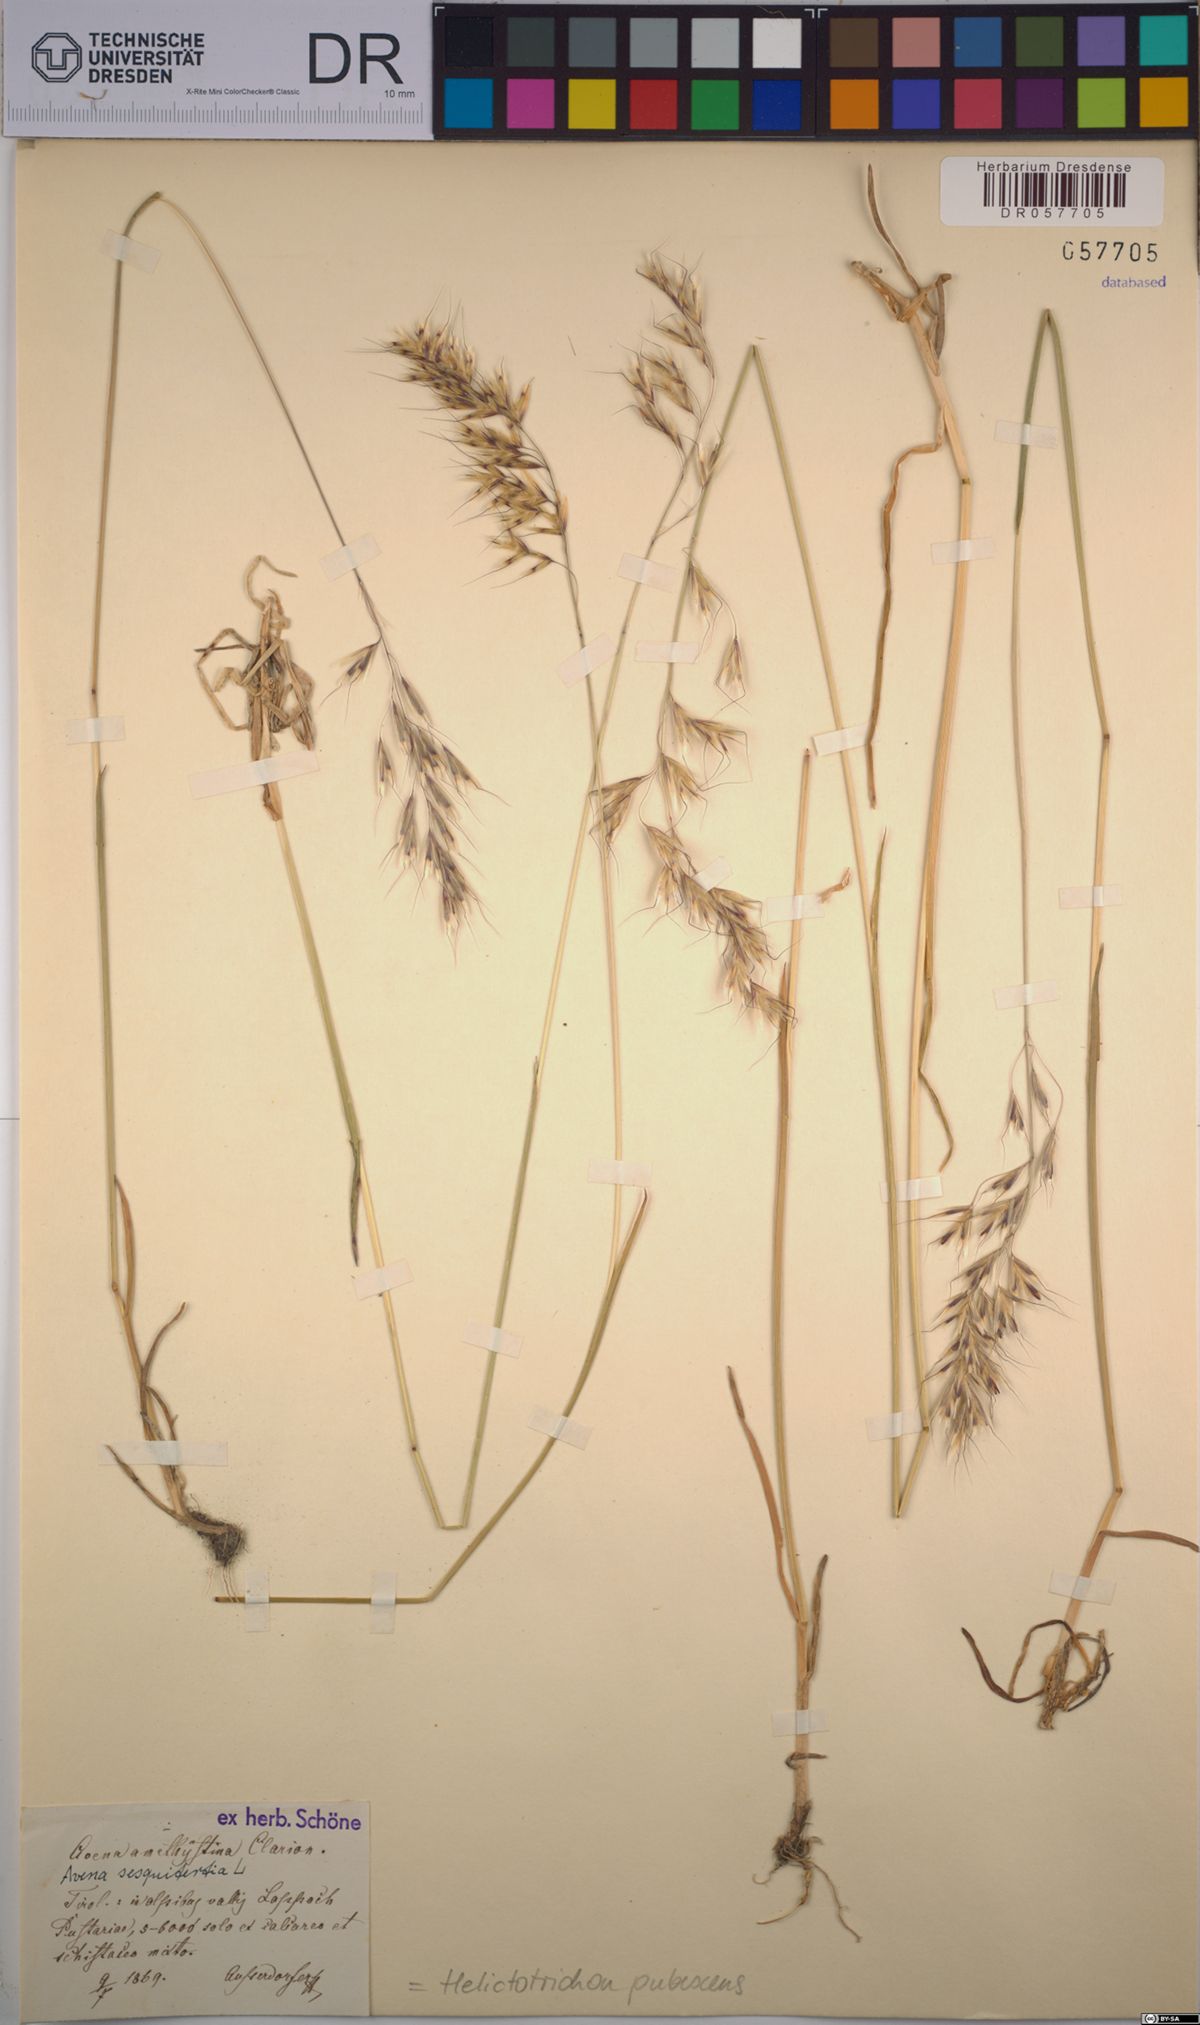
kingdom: Plantae
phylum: Tracheophyta
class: Liliopsida
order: Poales
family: Poaceae
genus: Avenula
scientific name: Avenula pubescens
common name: Downy alpine oatgrass
